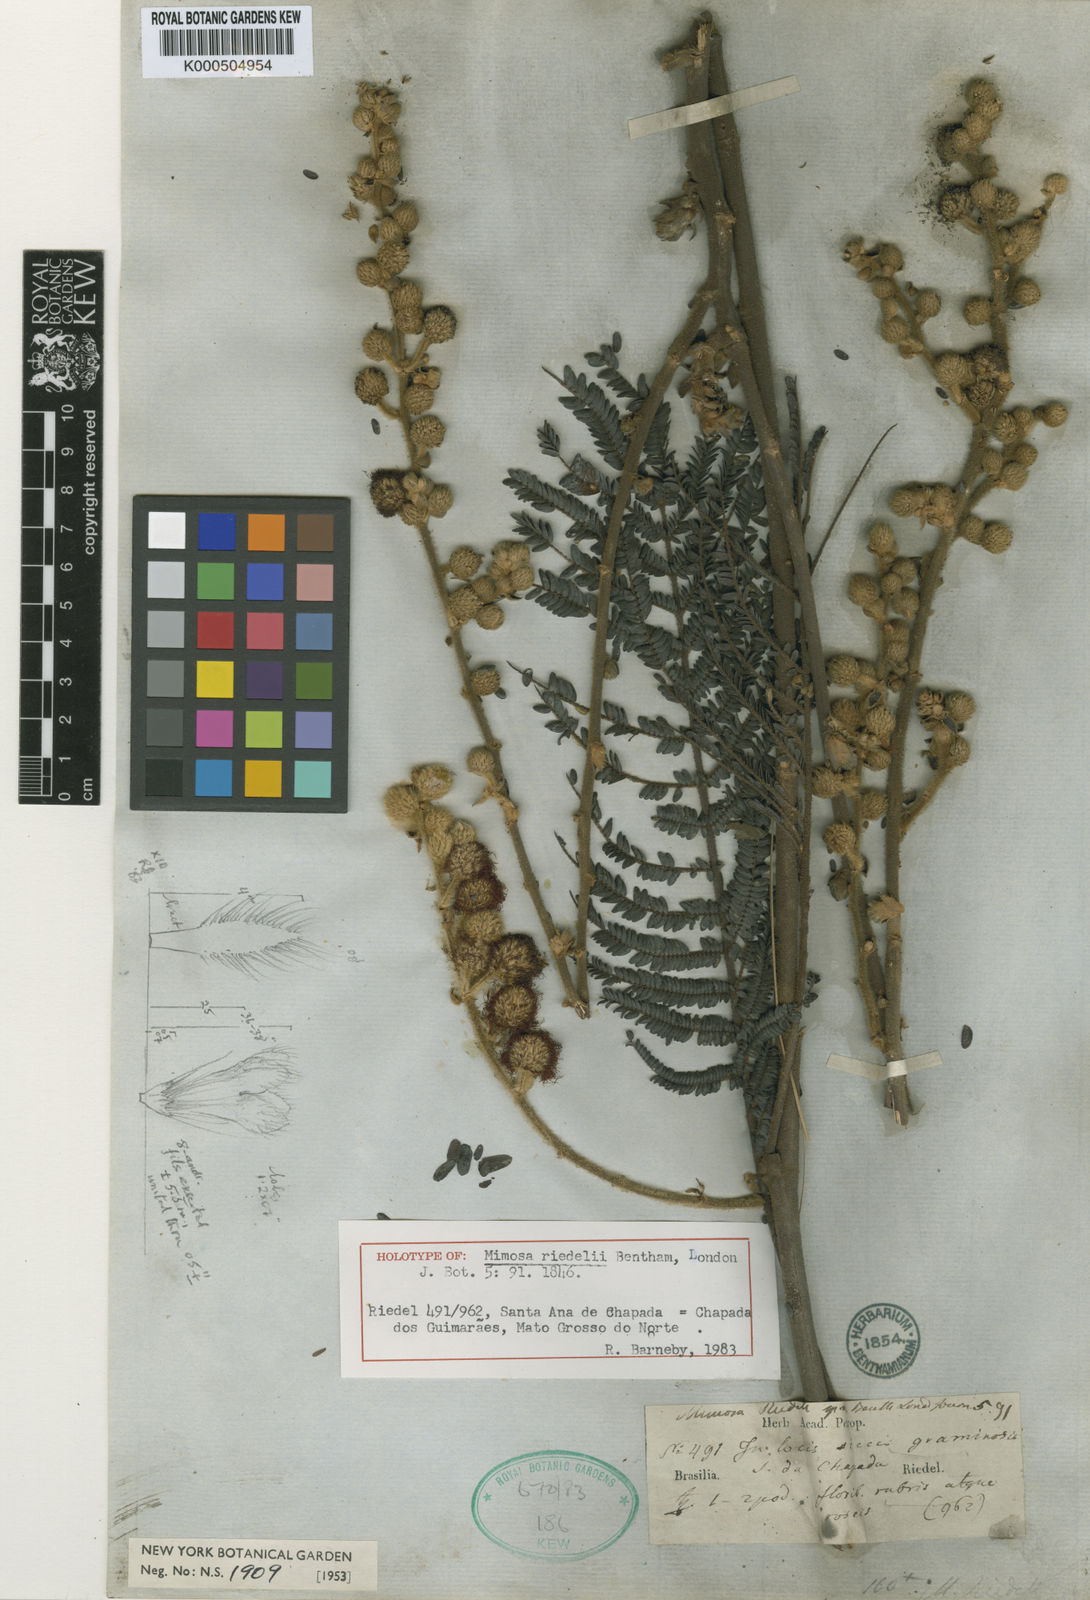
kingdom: Plantae
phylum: Tracheophyta
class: Magnoliopsida
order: Fabales
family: Fabaceae
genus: Mimosa
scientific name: Mimosa riedelii
